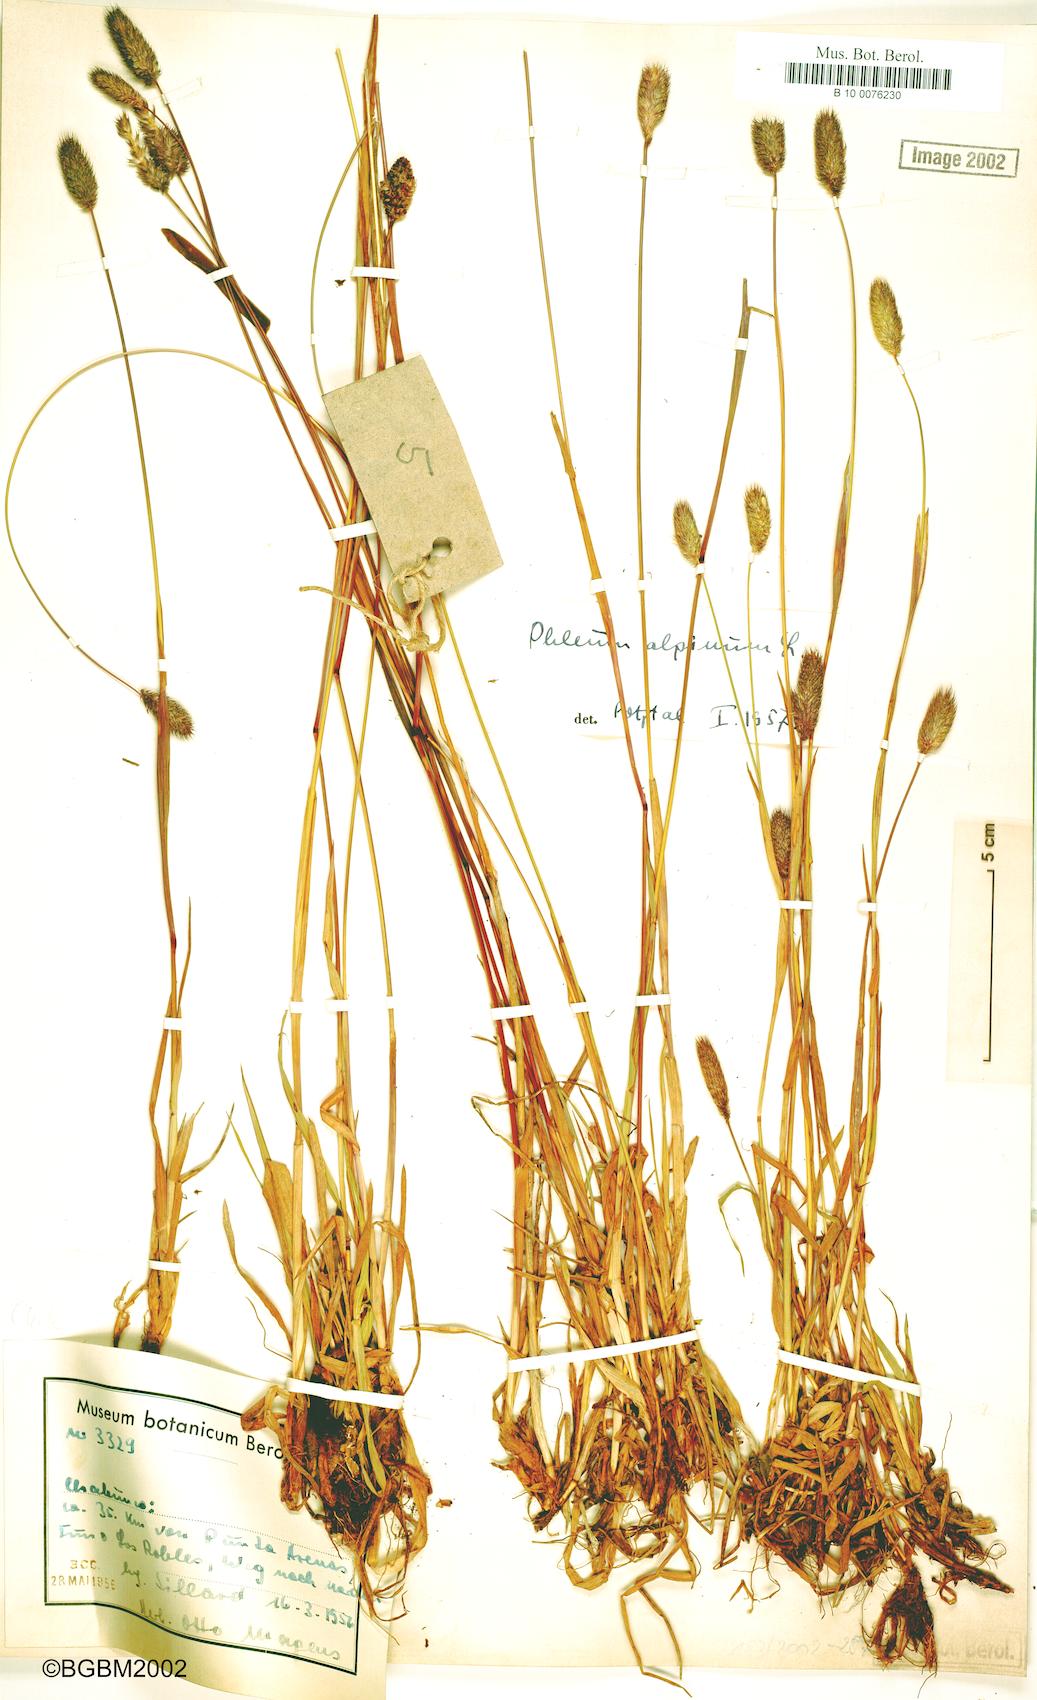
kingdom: Plantae
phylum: Tracheophyta
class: Liliopsida
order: Poales
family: Poaceae
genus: Phleum
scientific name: Phleum alpinum
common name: Alpine cat's-tail
